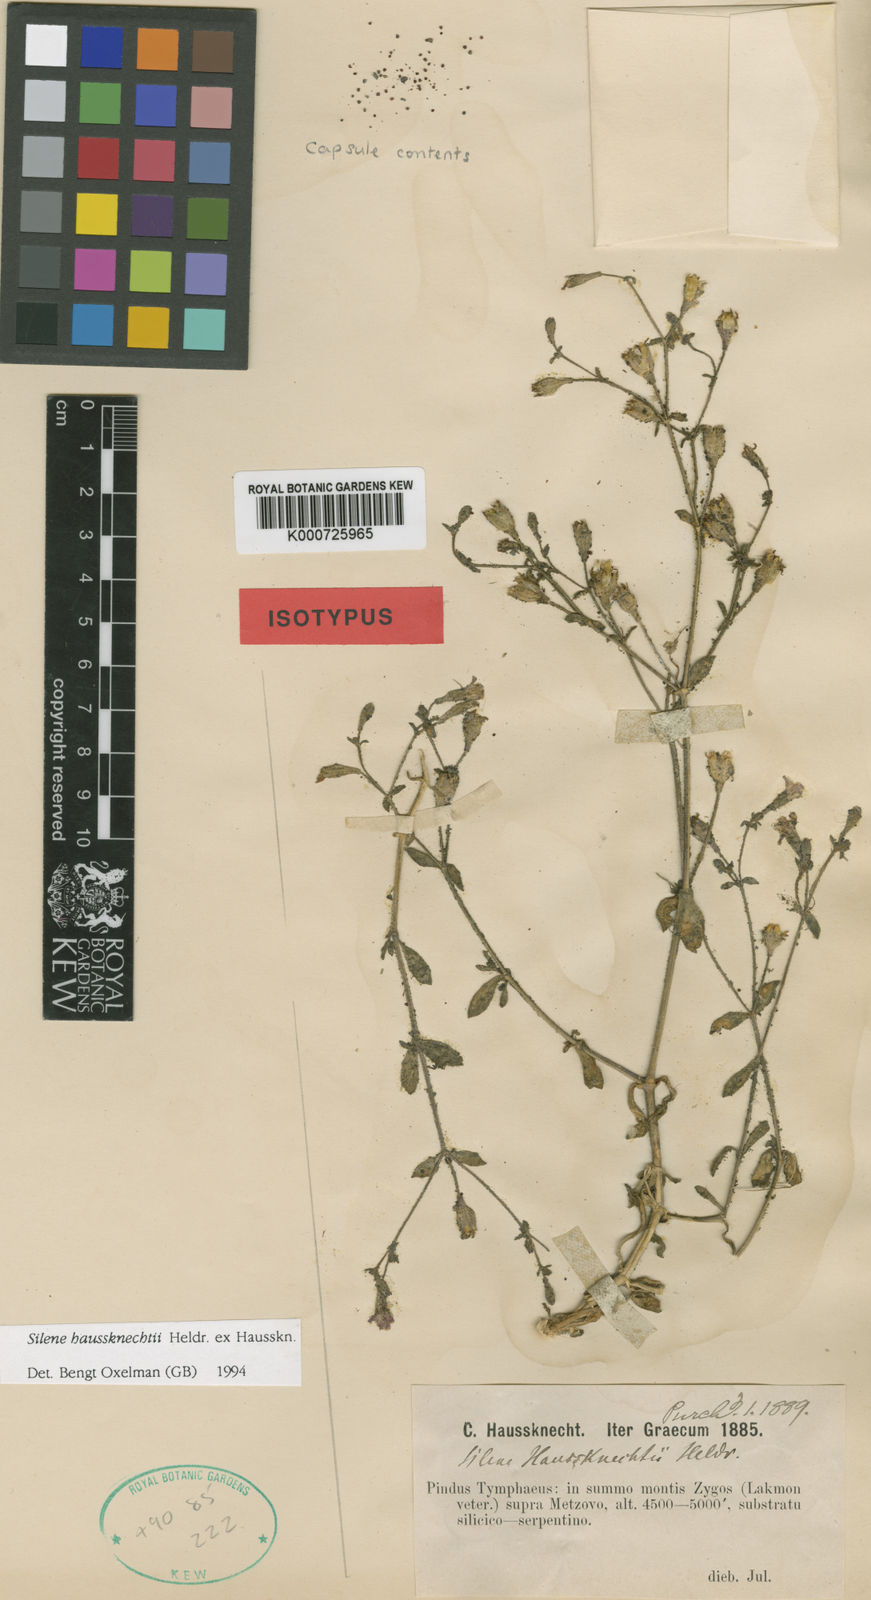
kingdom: Plantae
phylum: Tracheophyta
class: Magnoliopsida
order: Caryophyllales
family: Caryophyllaceae
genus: Silene
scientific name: Silene
